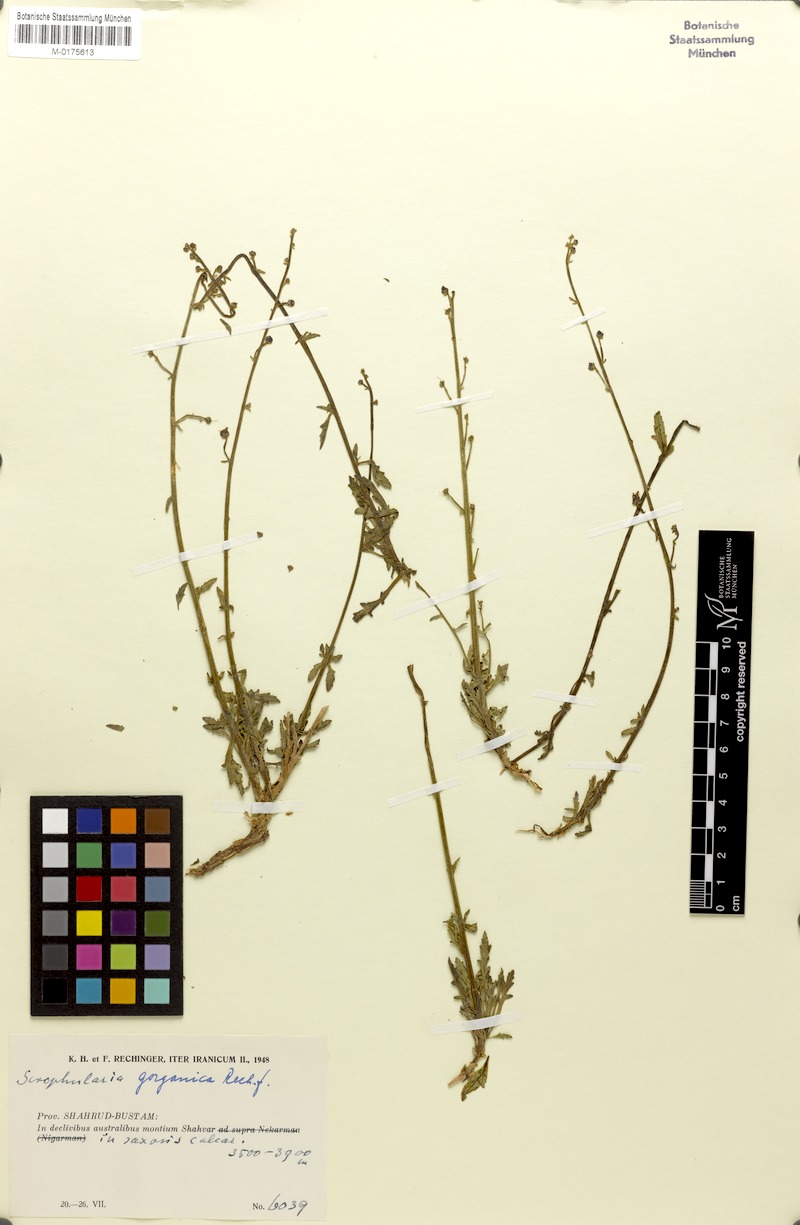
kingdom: Plantae
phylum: Tracheophyta
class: Magnoliopsida
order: Lamiales
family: Scrophulariaceae
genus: Scrophularia
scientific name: Scrophularia gorganica
